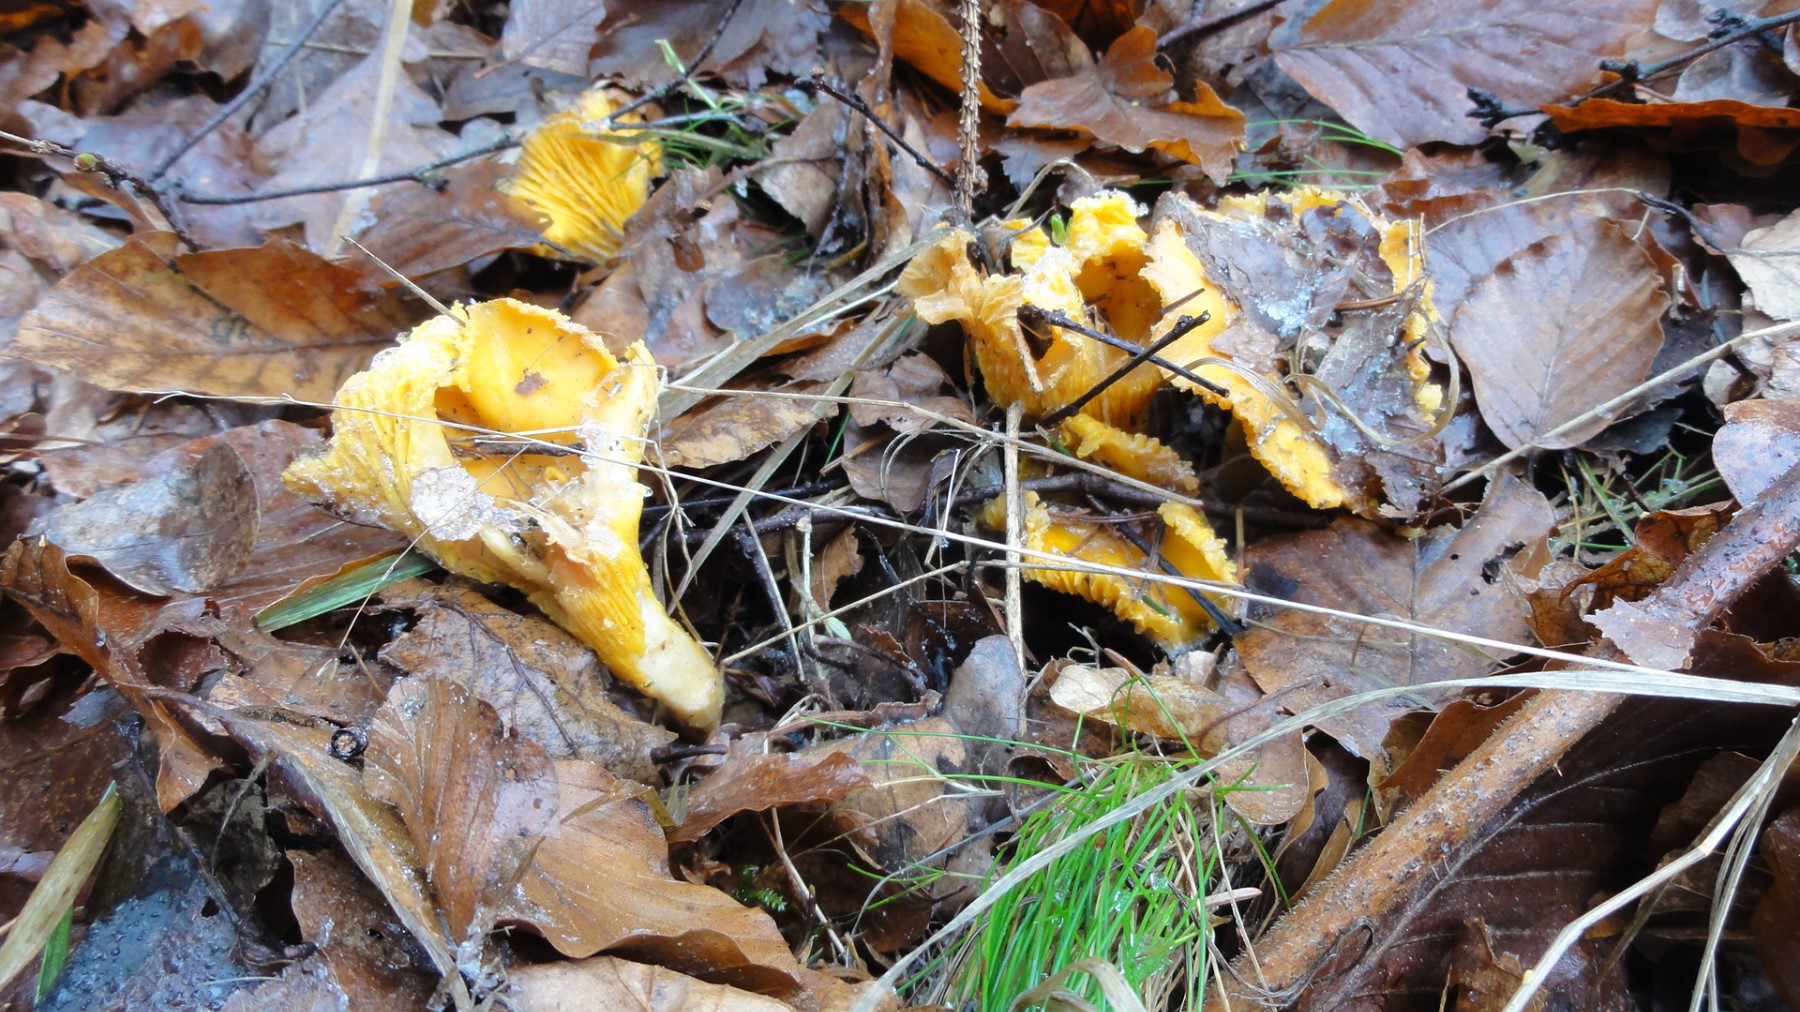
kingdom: Fungi
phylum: Basidiomycota
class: Agaricomycetes
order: Cantharellales
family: Hydnaceae
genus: Cantharellus
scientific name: Cantharellus cibarius
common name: almindelig kantarel
